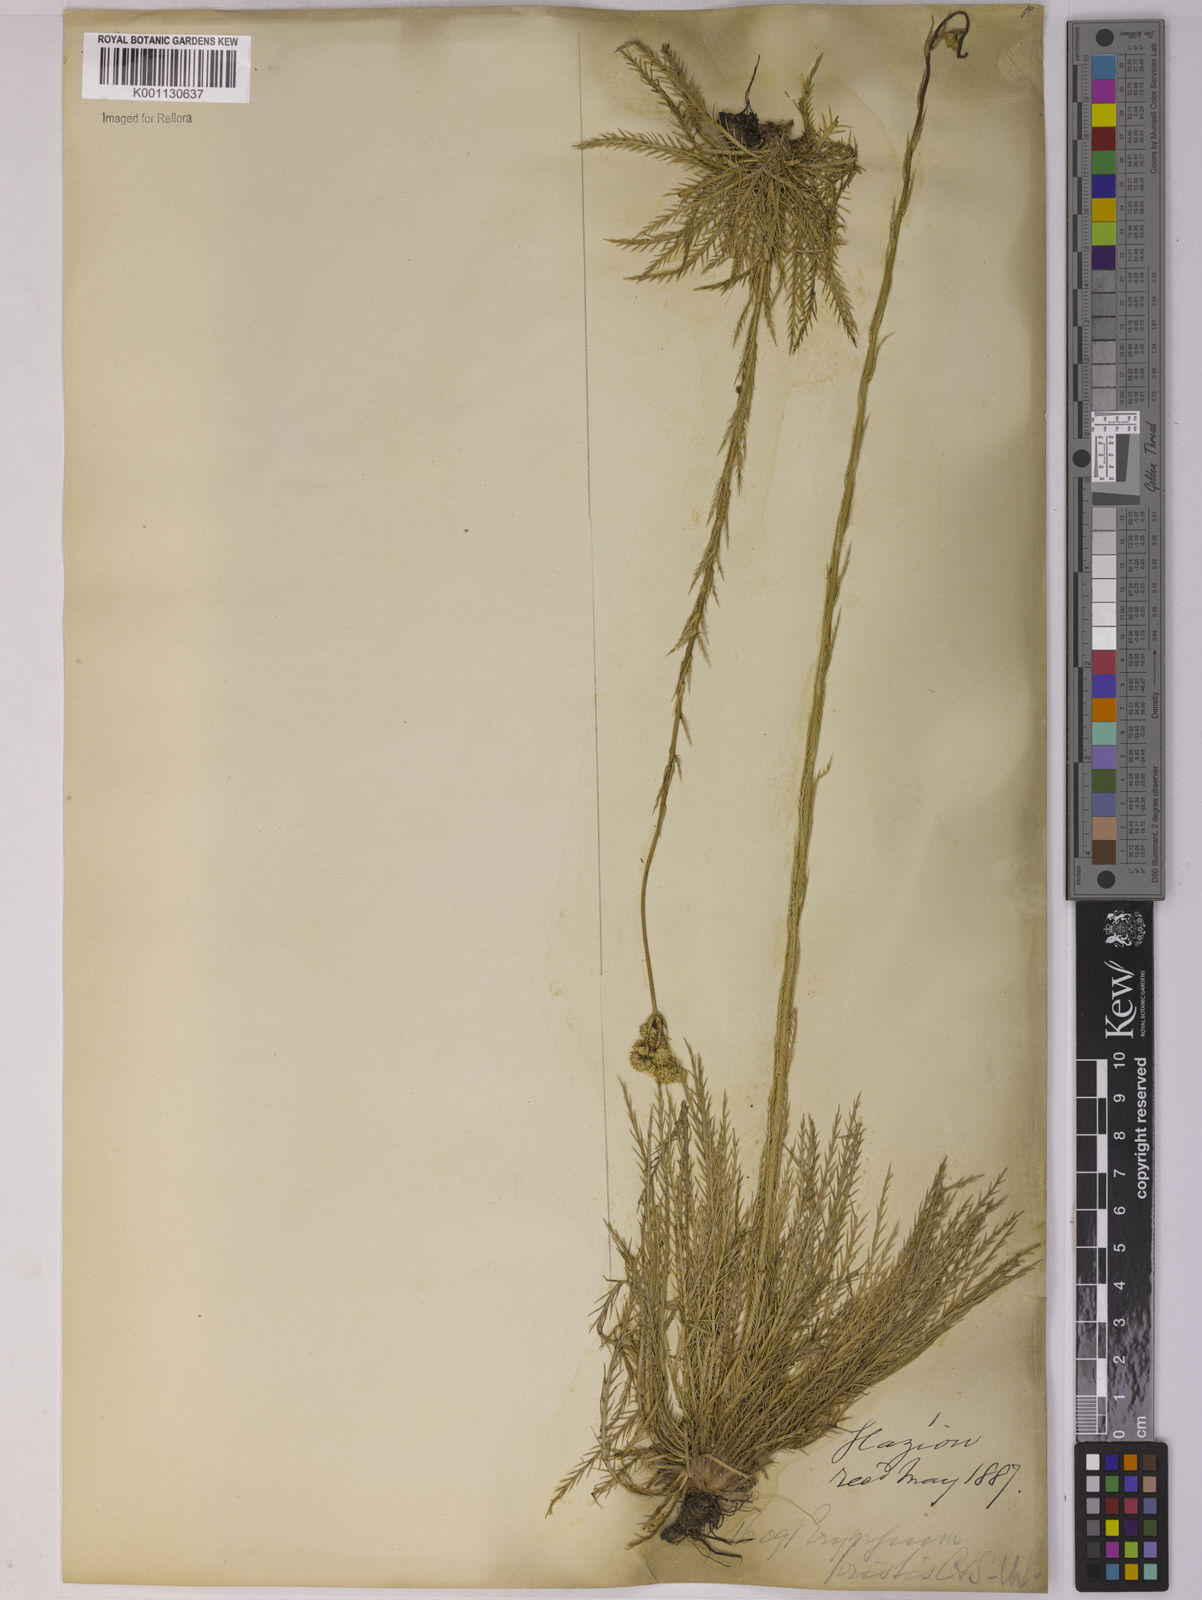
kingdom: Plantae
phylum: Tracheophyta
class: Magnoliopsida
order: Apiales
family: Apiaceae
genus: Eryngium
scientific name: Eryngium pristis
